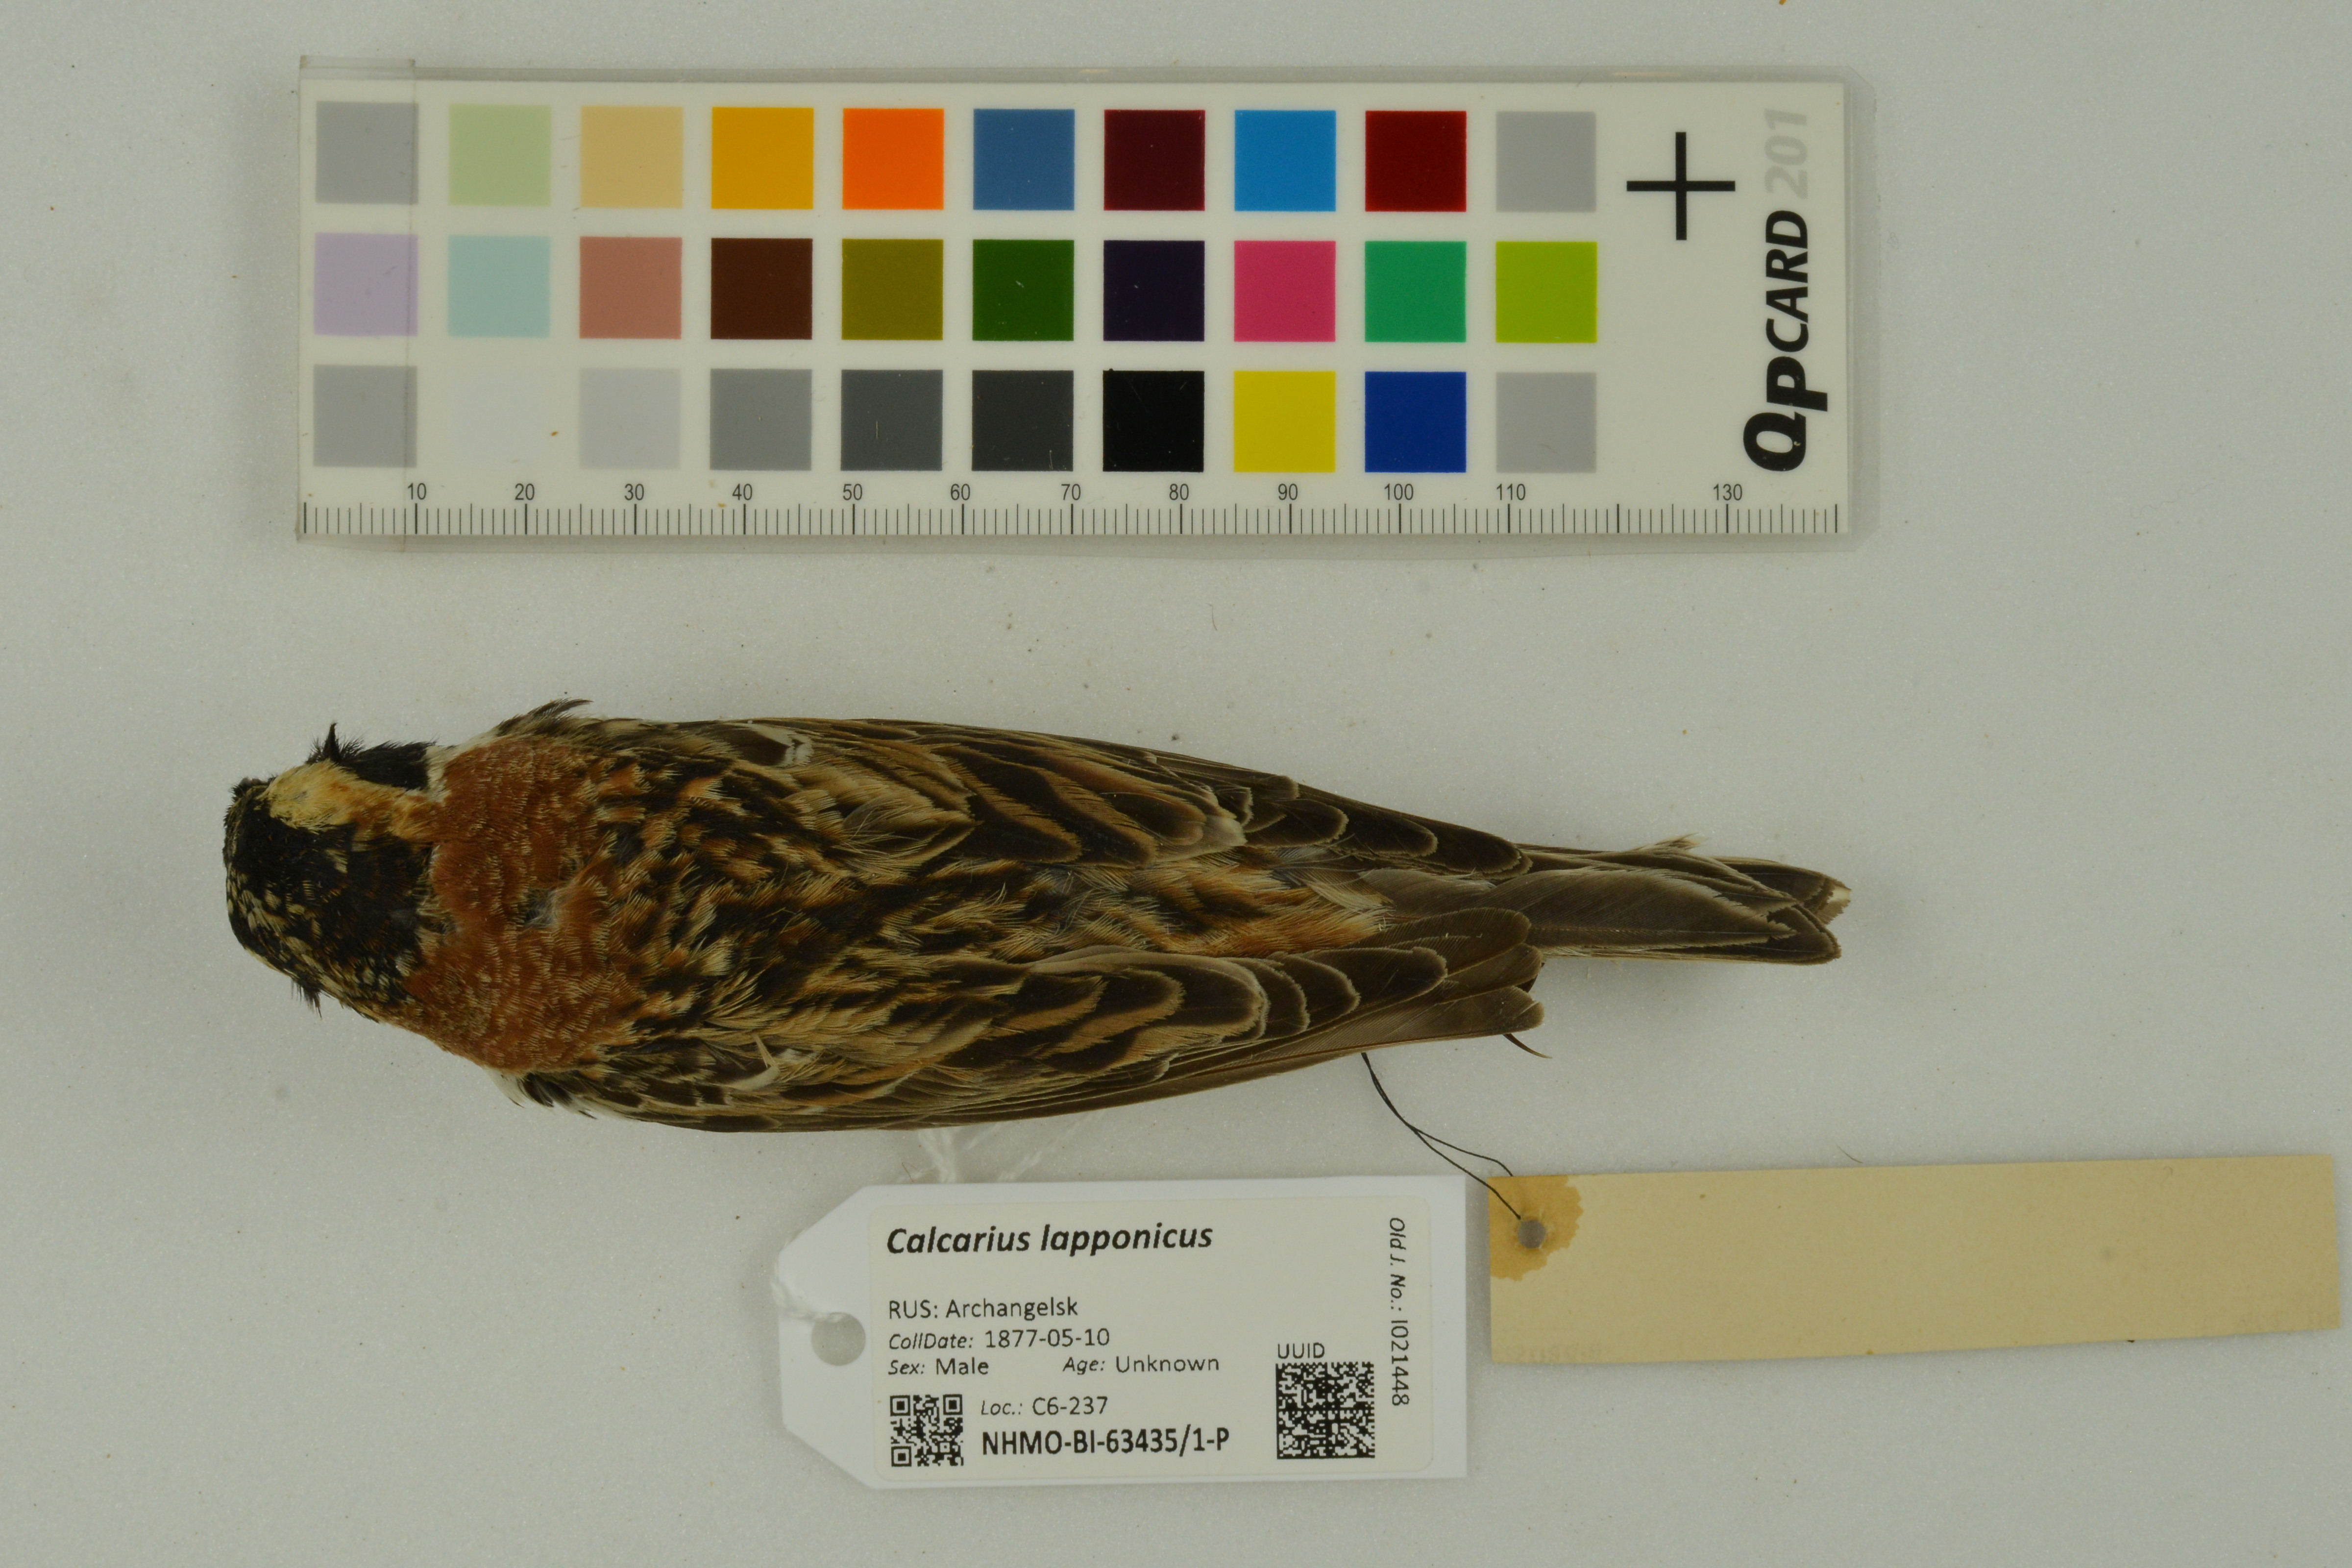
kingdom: Animalia
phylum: Chordata
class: Aves
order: Passeriformes
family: Calcariidae
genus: Calcarius
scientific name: Calcarius lapponicus
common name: Lapland longspur
